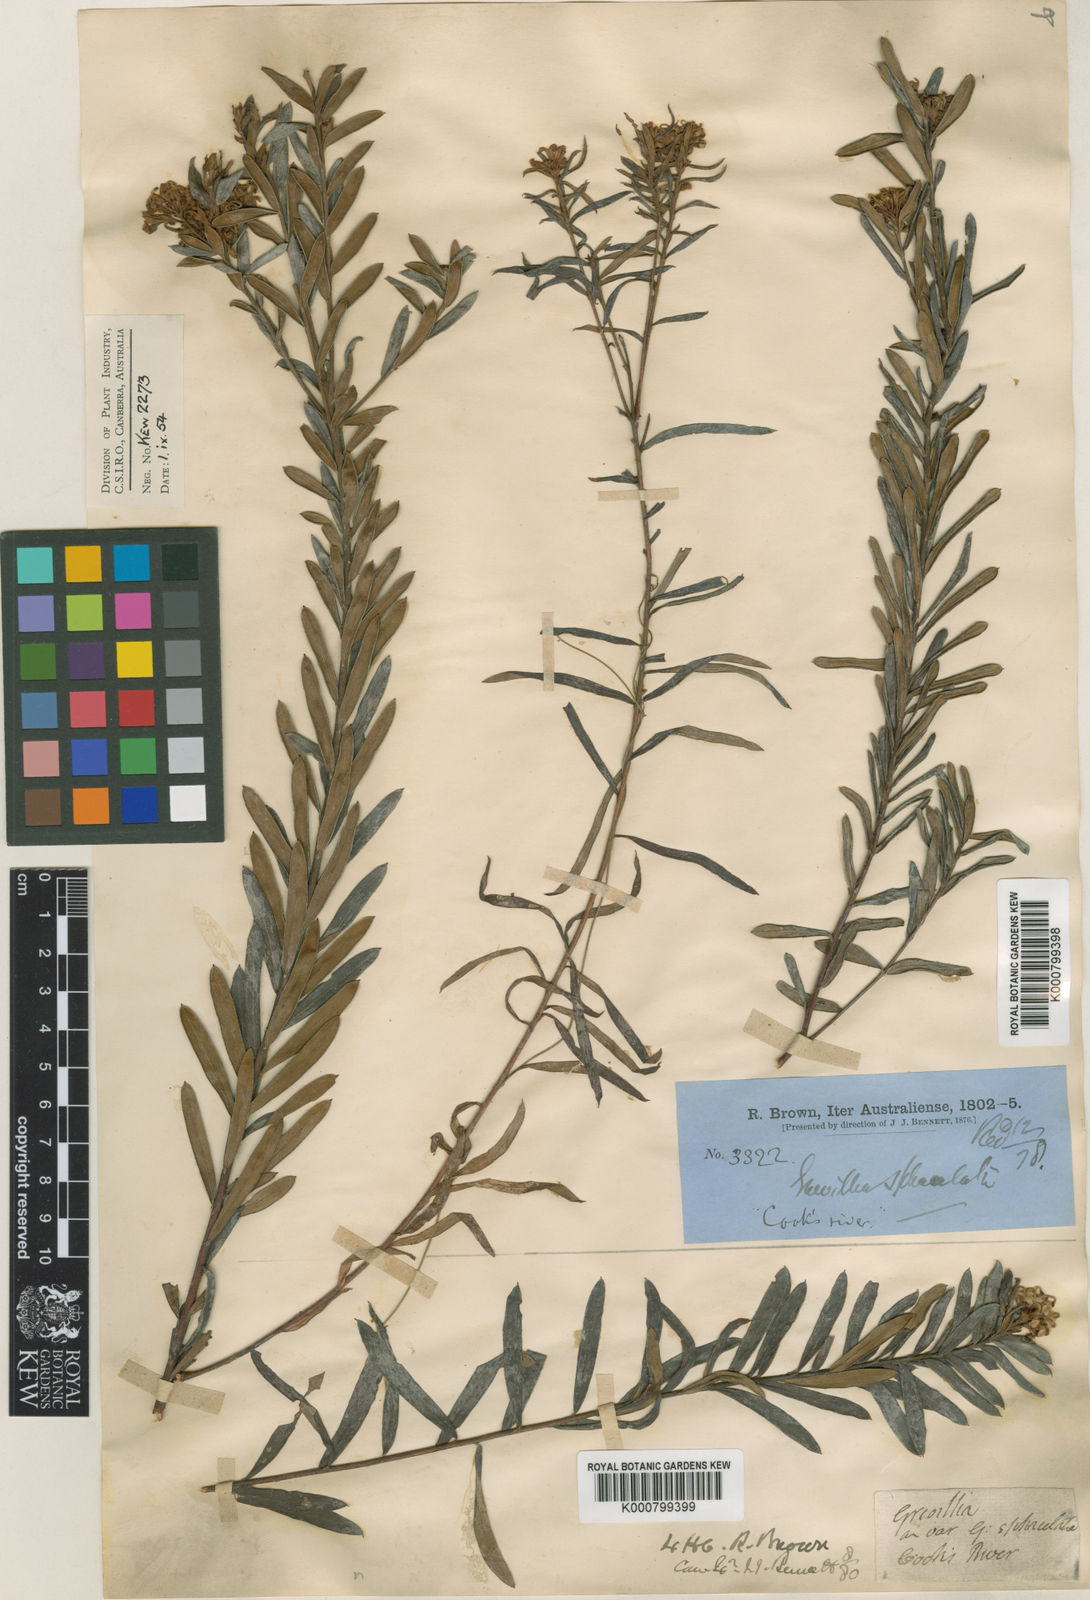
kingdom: Plantae
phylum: Tracheophyta
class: Magnoliopsida
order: Proteales
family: Proteaceae
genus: Grevillea
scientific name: Grevillea sphacelata
